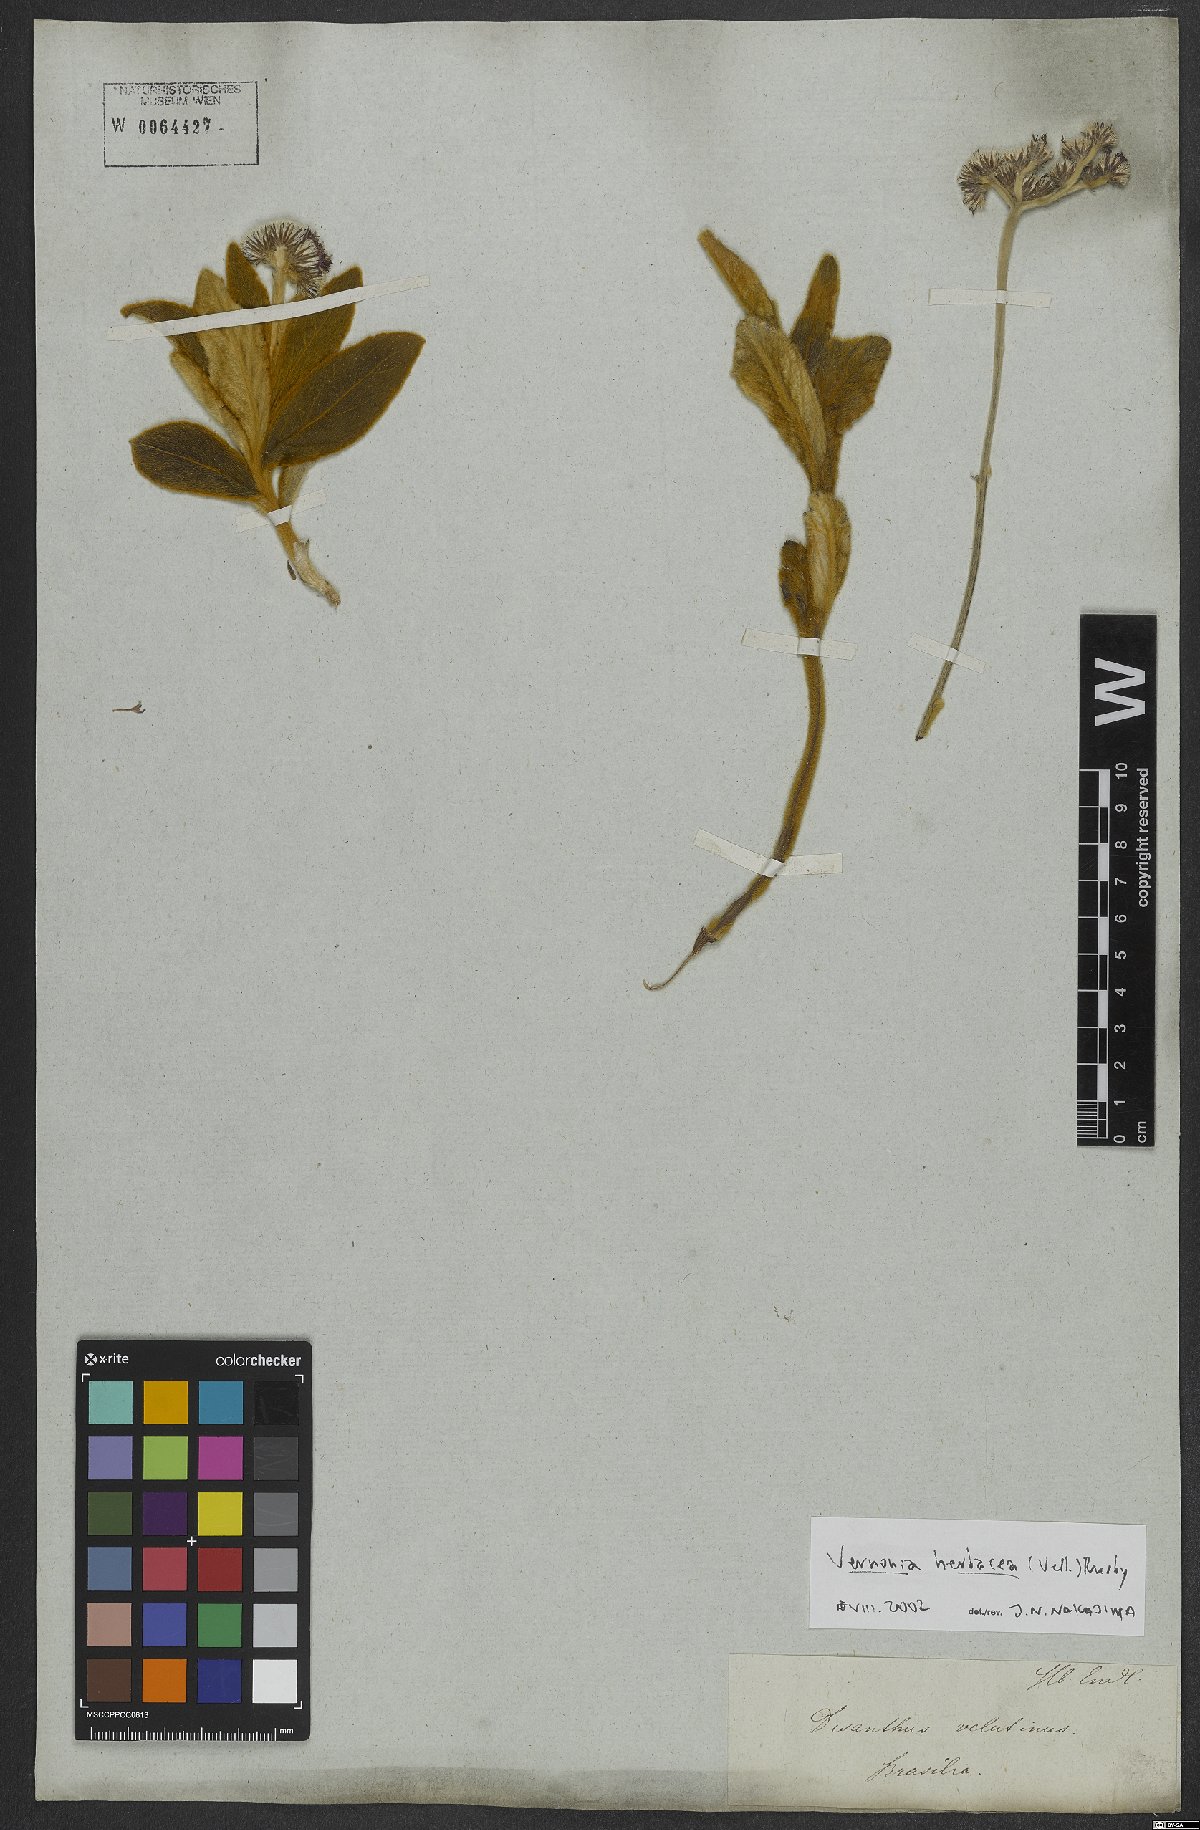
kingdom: Plantae
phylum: Tracheophyta
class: Magnoliopsida
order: Asterales
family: Asteraceae
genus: Chrysolaena
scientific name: Chrysolaena obovata
